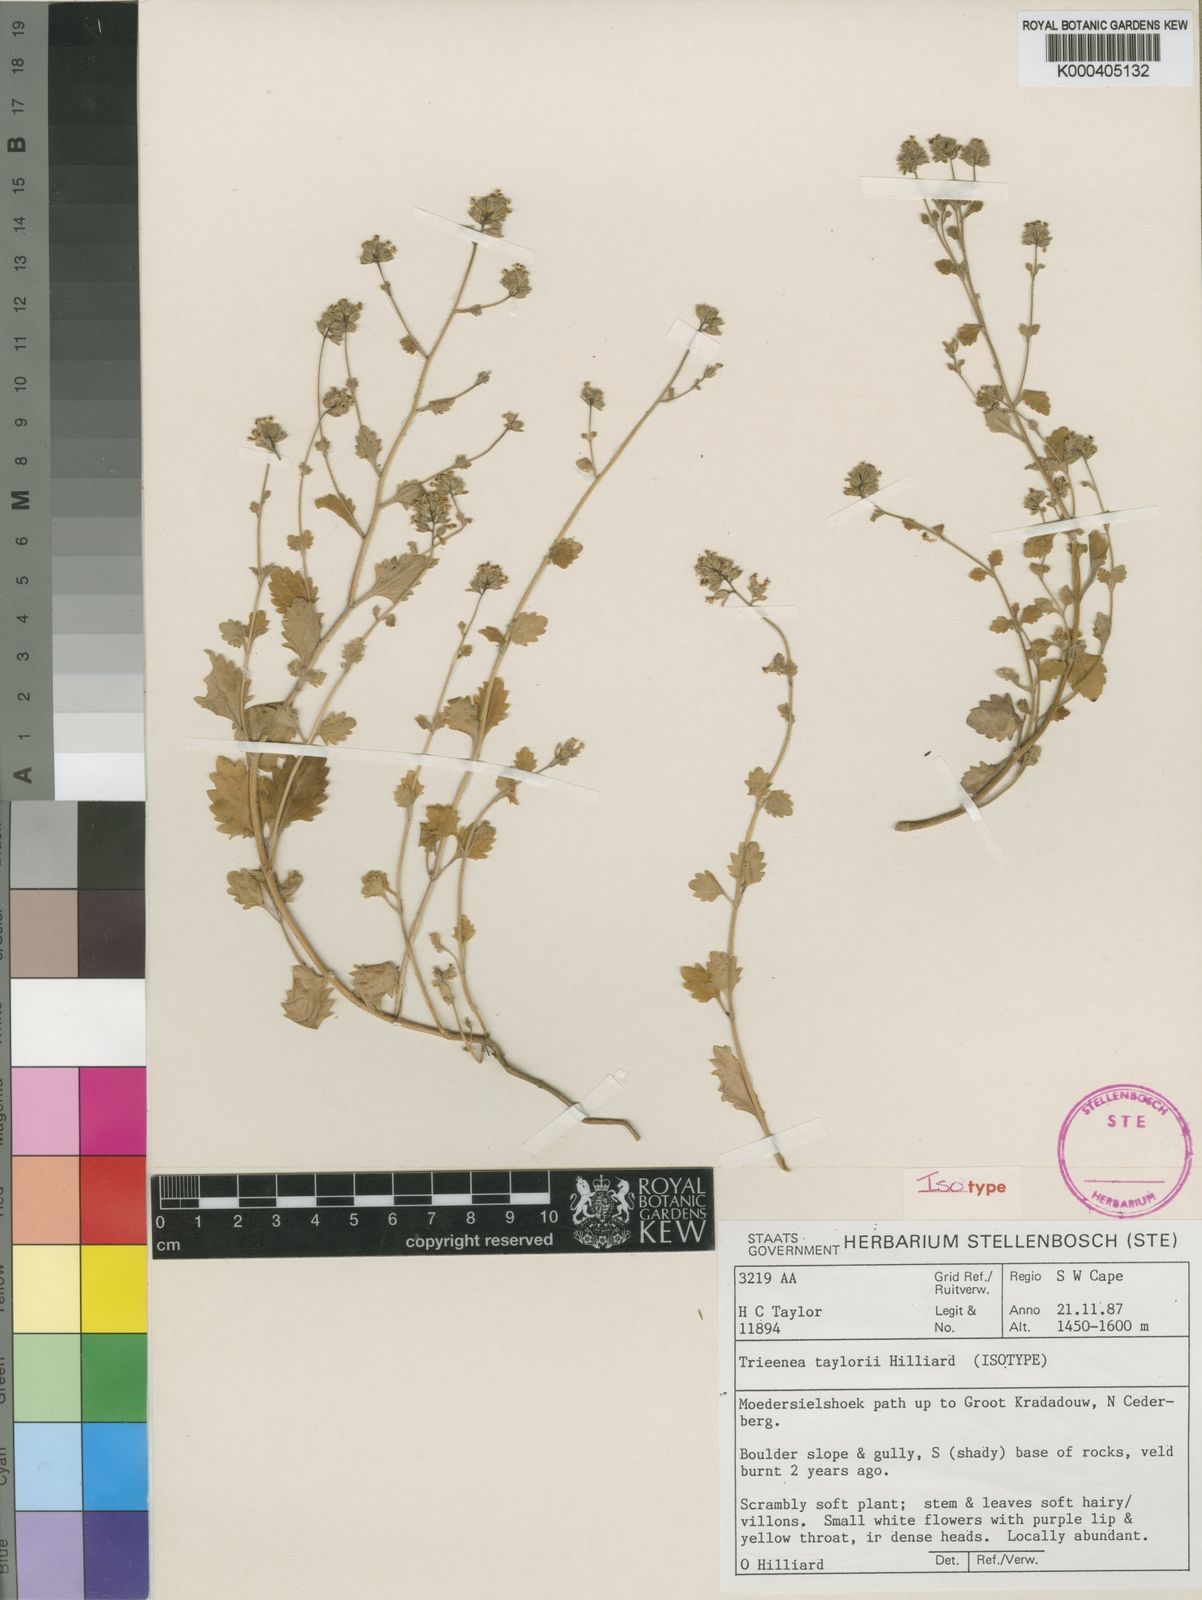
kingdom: Plantae
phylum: Tracheophyta
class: Magnoliopsida
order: Lamiales
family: Scrophulariaceae
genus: Trieenea
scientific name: Trieenea taylorii
